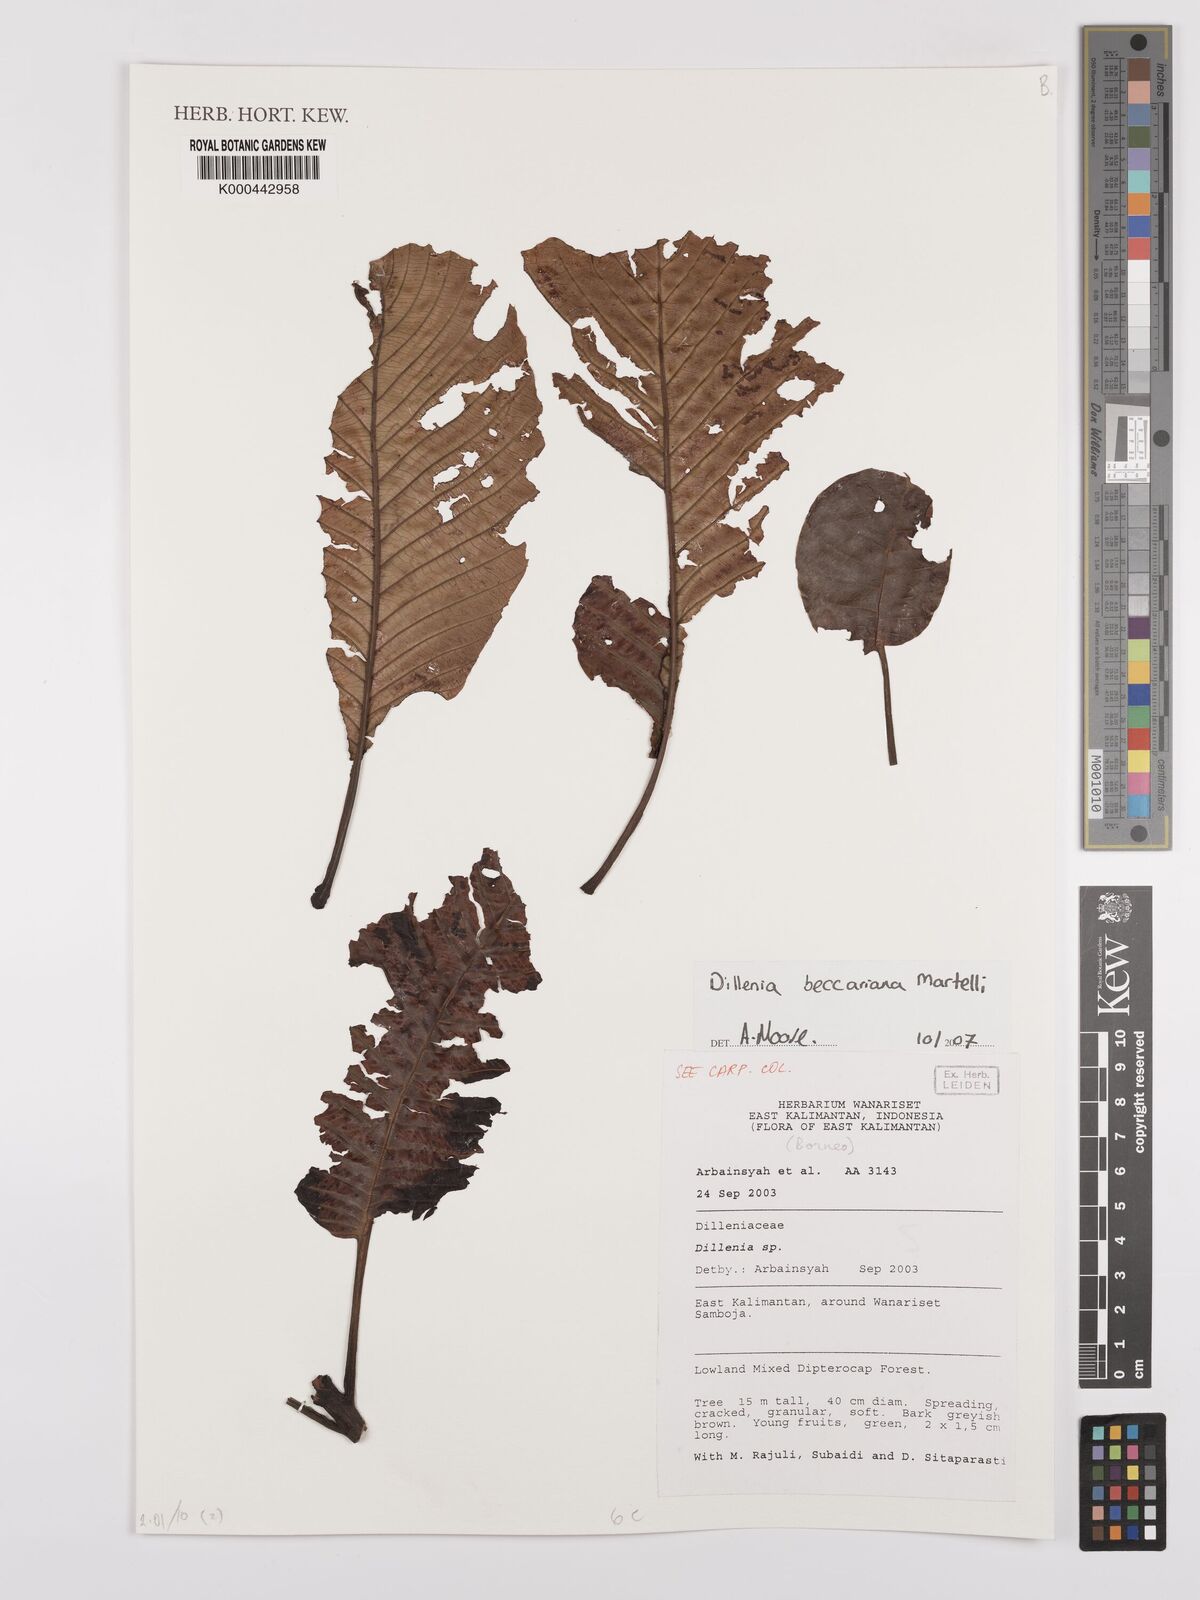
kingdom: Plantae
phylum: Tracheophyta
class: Magnoliopsida
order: Dilleniales
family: Dilleniaceae
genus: Dillenia
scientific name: Dillenia beccariana
